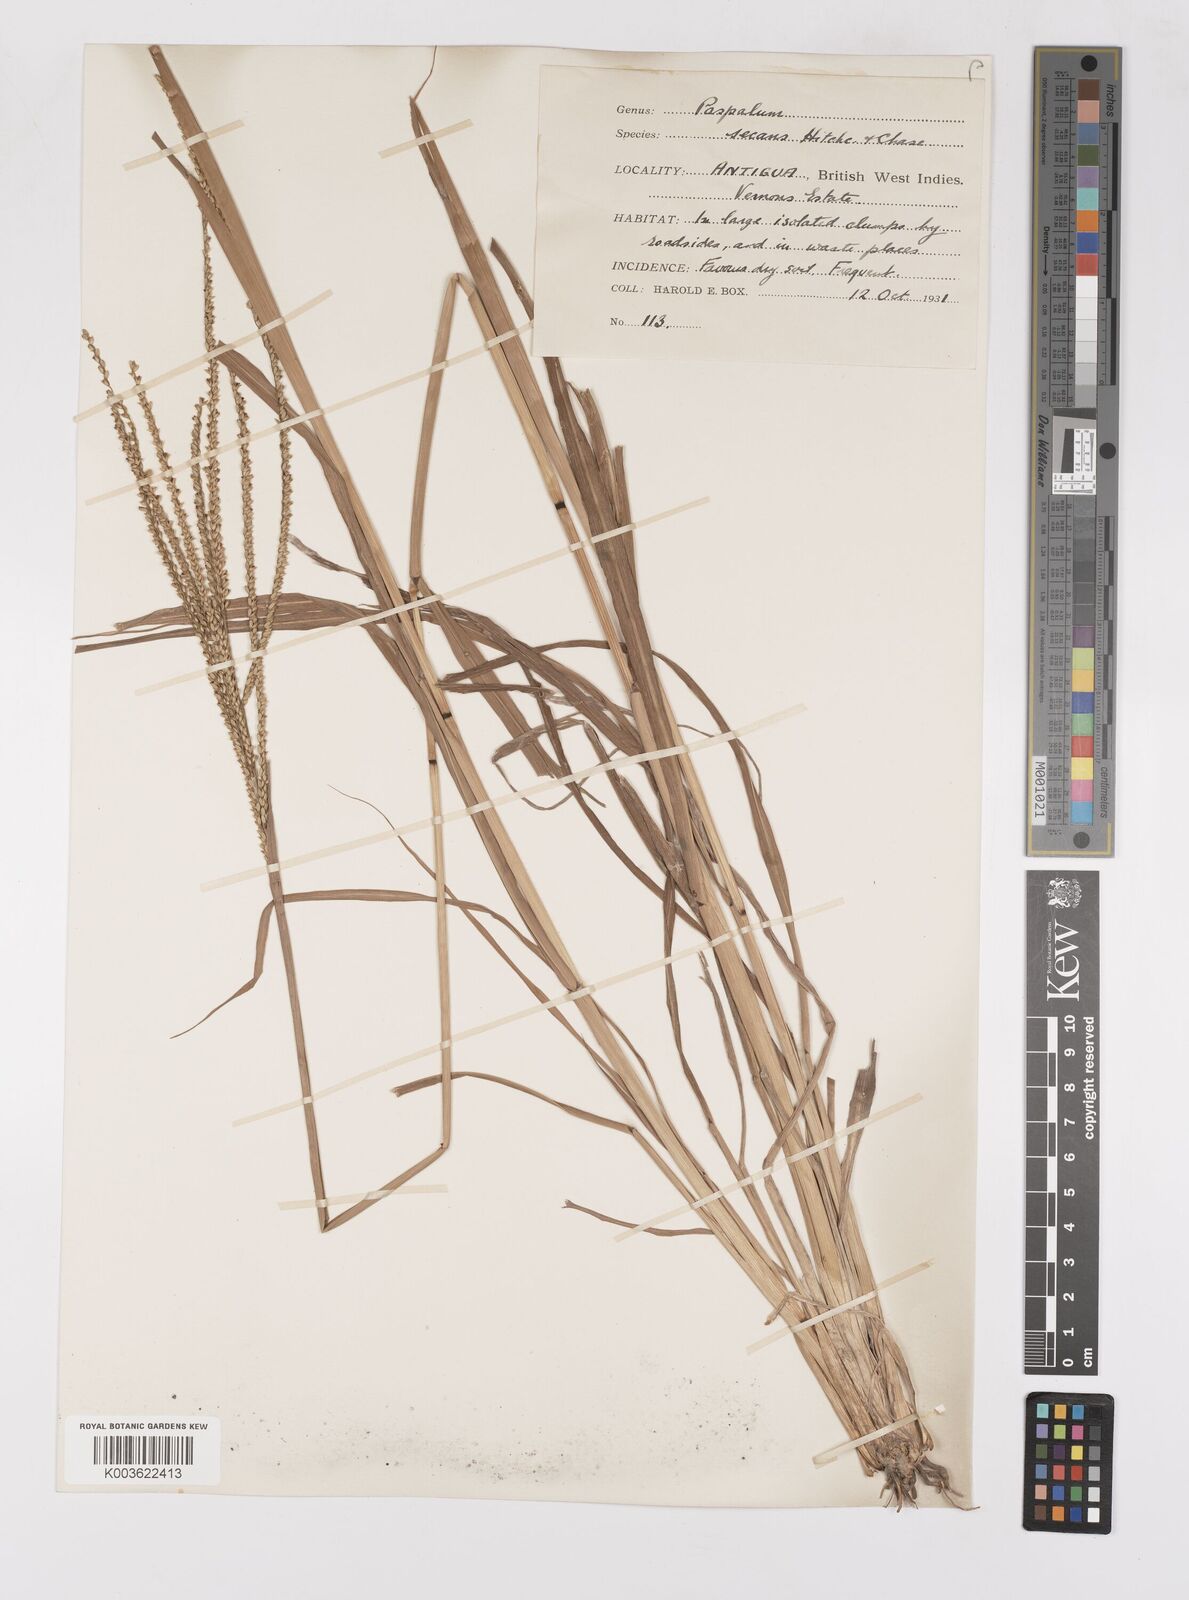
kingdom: Plantae
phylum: Tracheophyta
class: Liliopsida
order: Poales
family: Poaceae
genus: Paspalum
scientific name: Paspalum arundinaceum
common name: Thick ditch crowngrass
